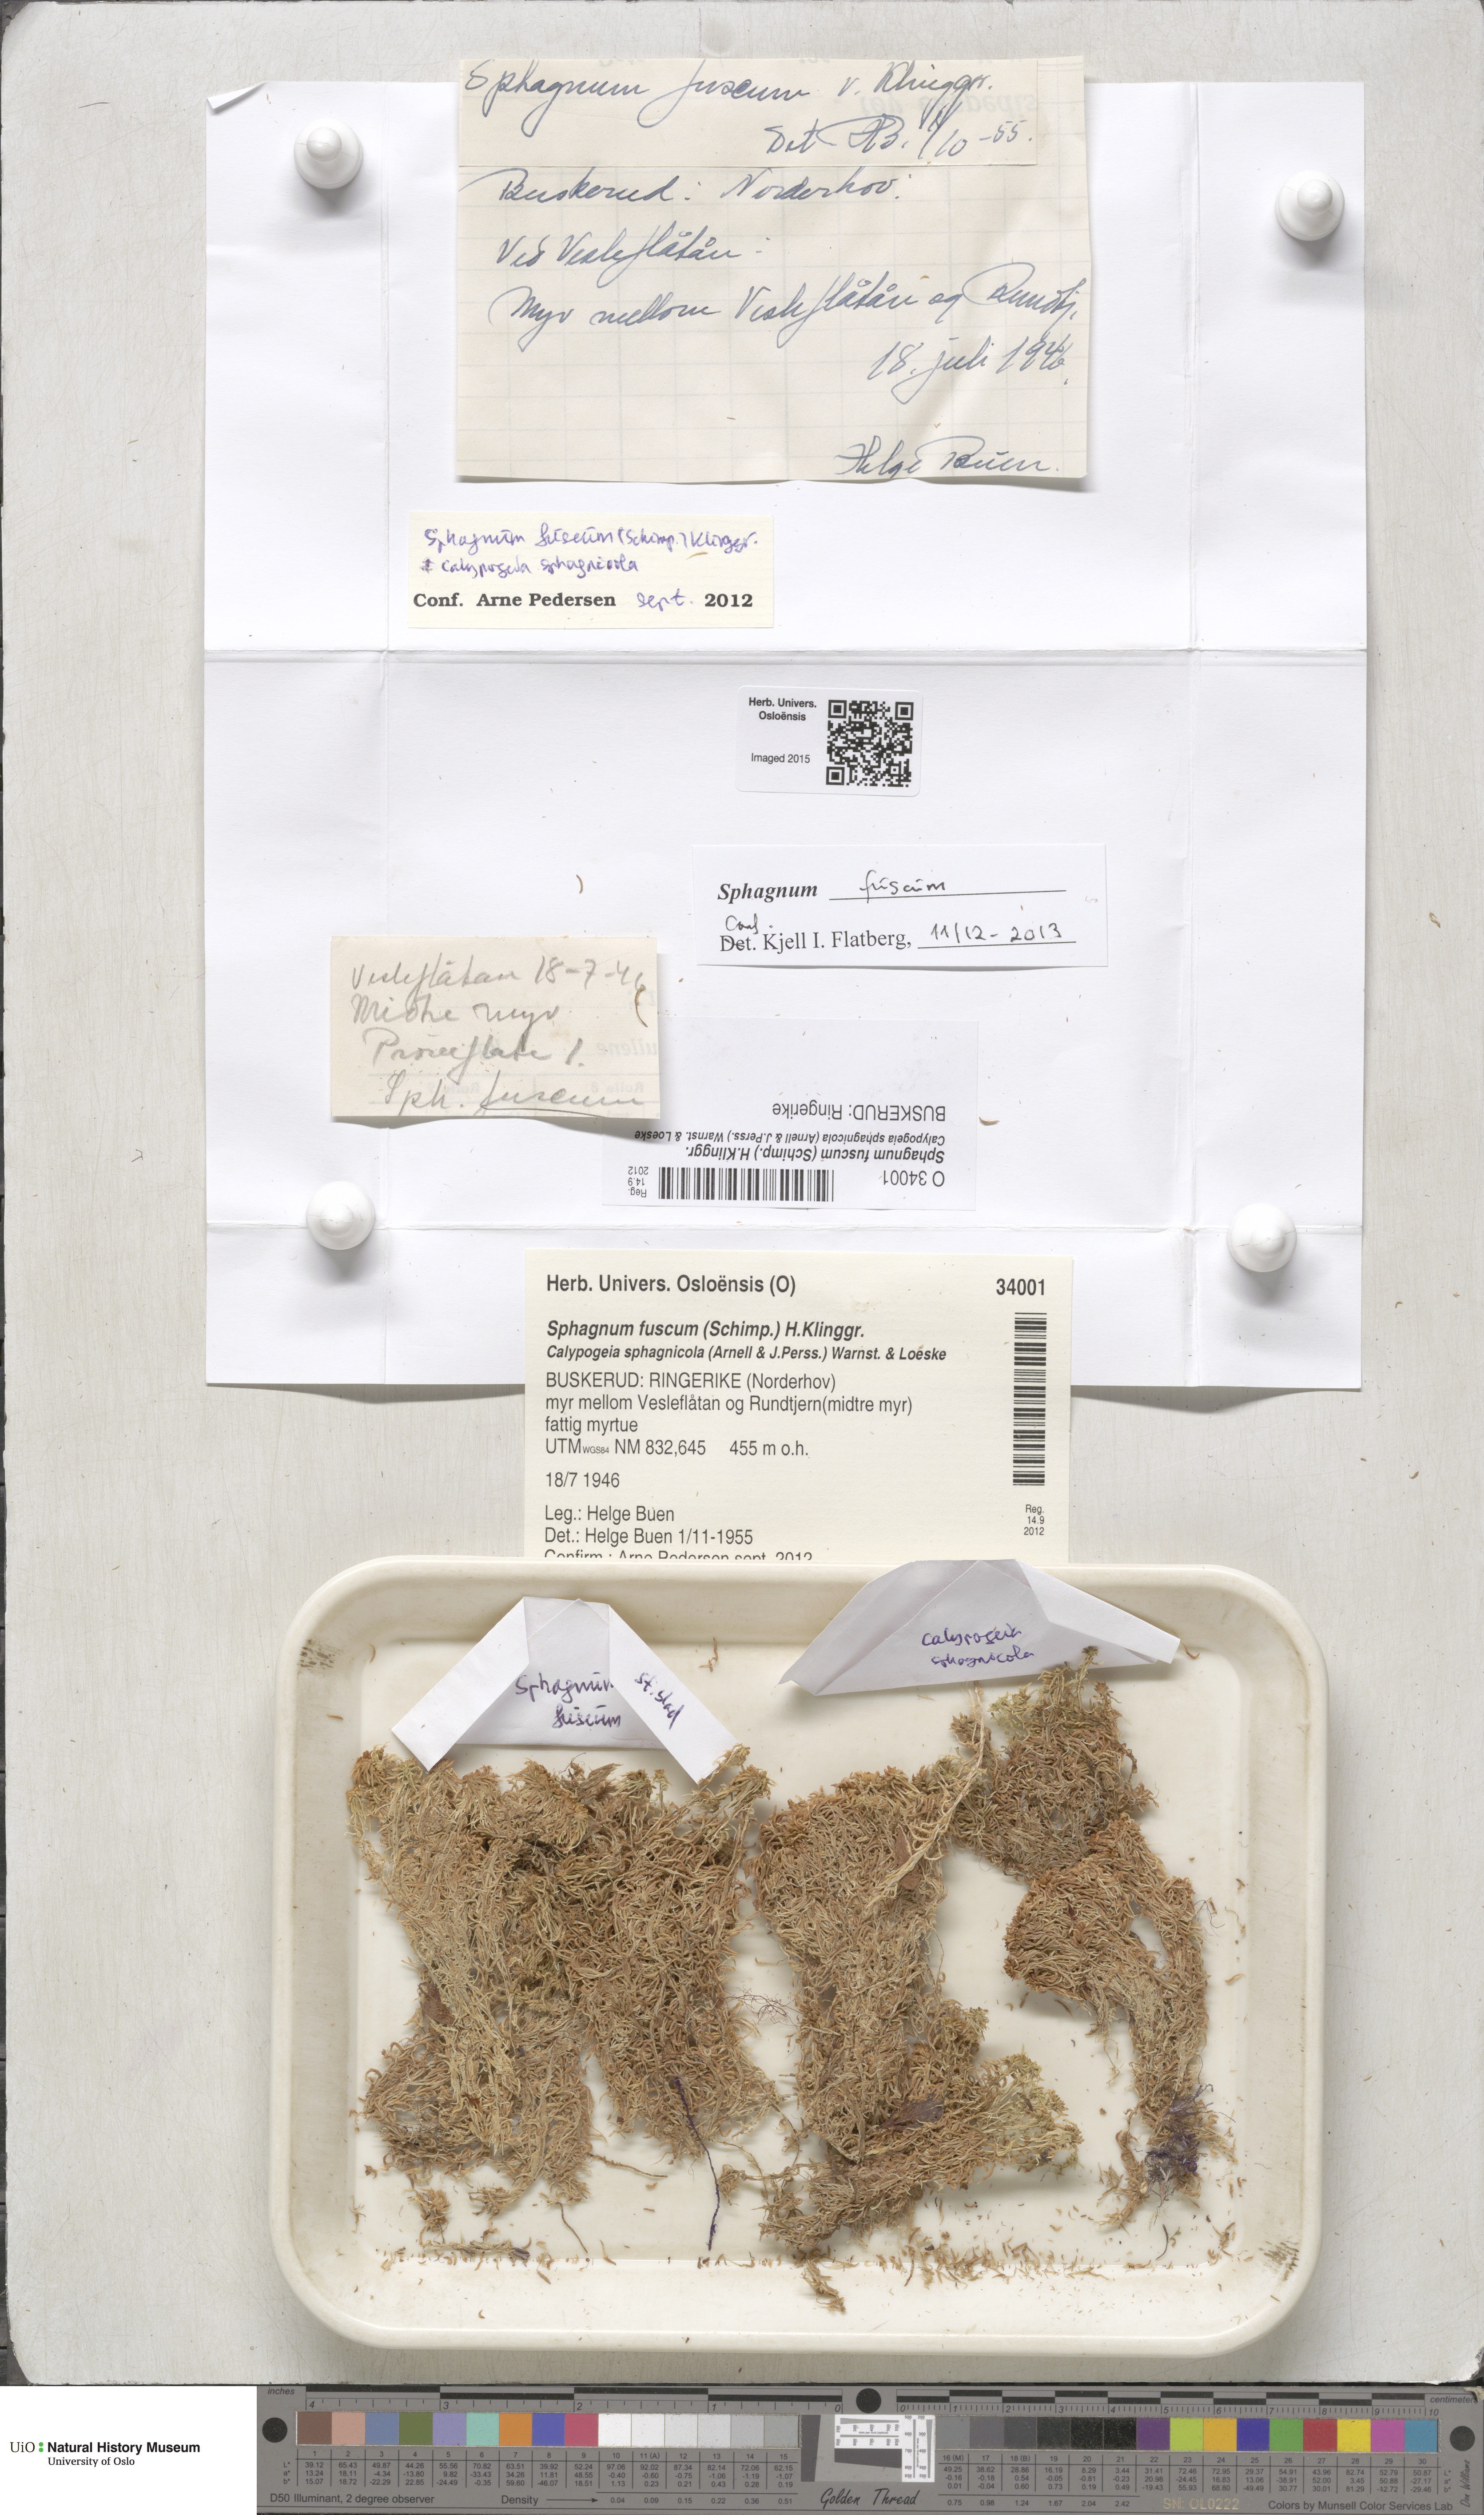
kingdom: Plantae
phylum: Bryophyta
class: Sphagnopsida
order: Sphagnales
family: Sphagnaceae
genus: Sphagnum
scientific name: Sphagnum fuscum
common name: Brown peat moss
